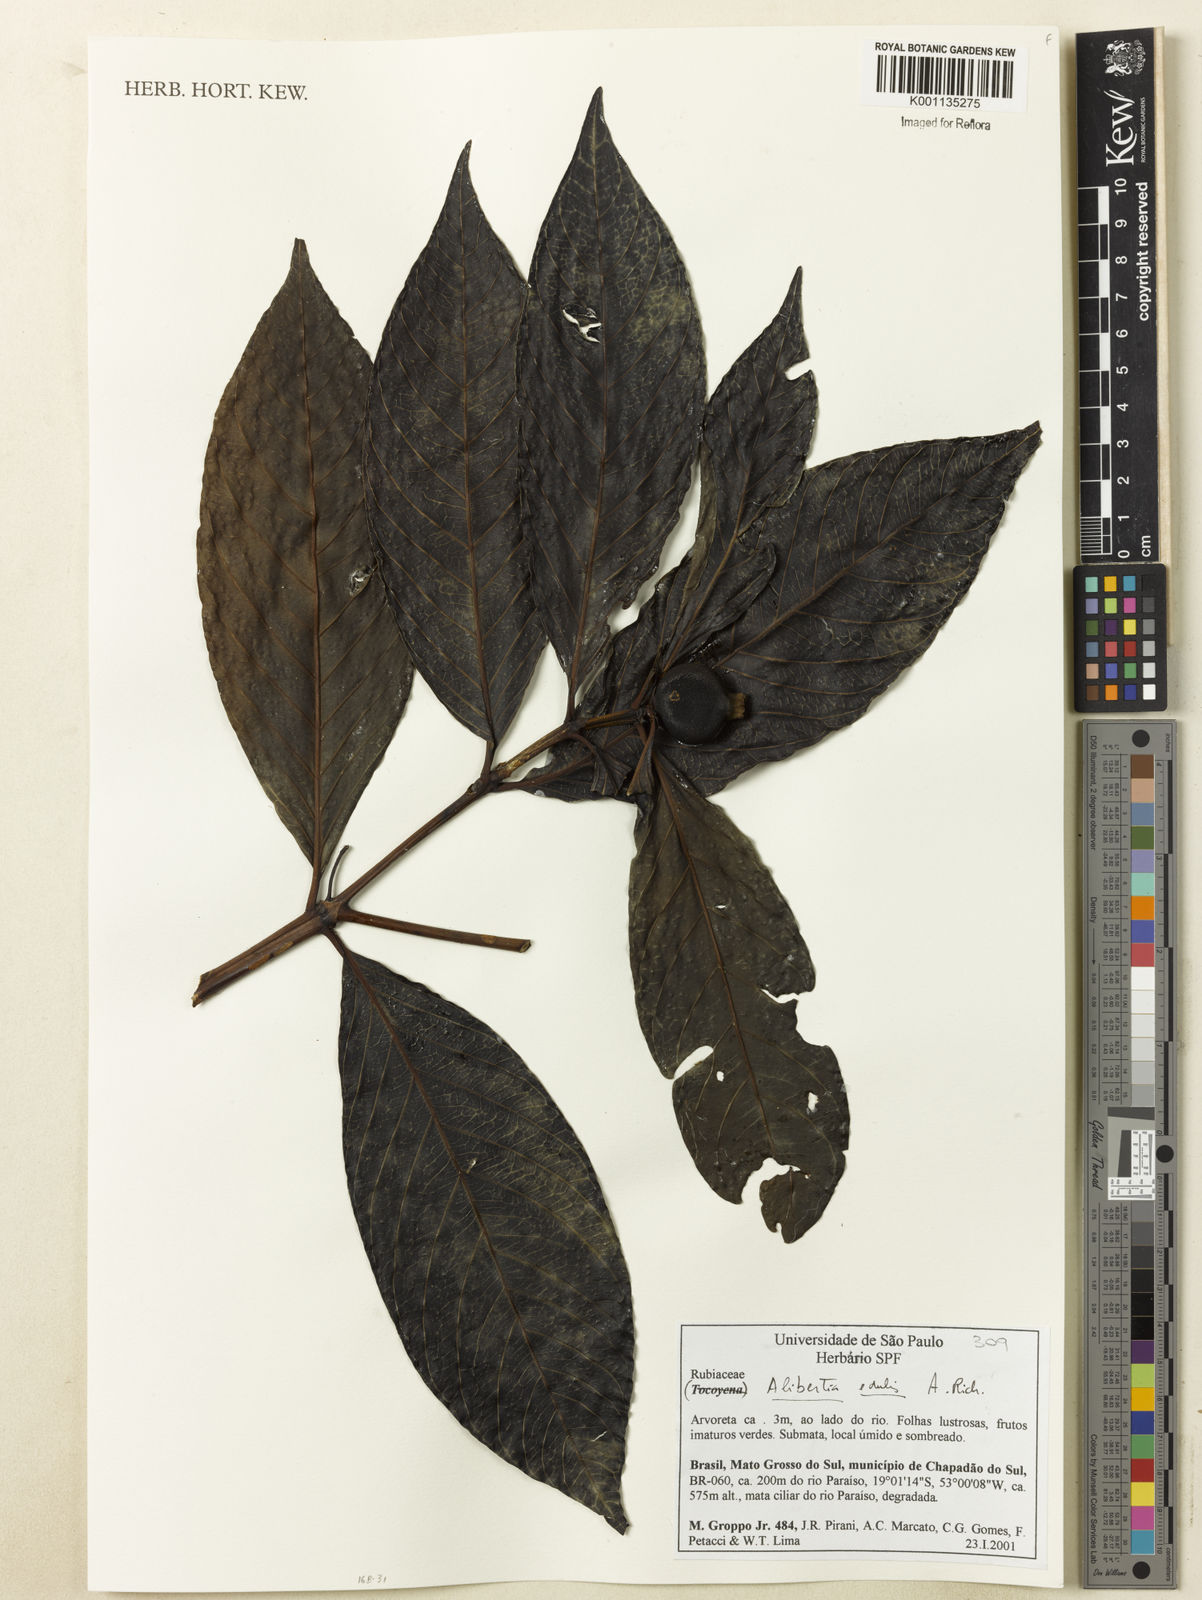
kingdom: Plantae
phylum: Tracheophyta
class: Magnoliopsida
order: Gentianales
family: Rubiaceae
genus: Alibertia
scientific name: Alibertia edulis
